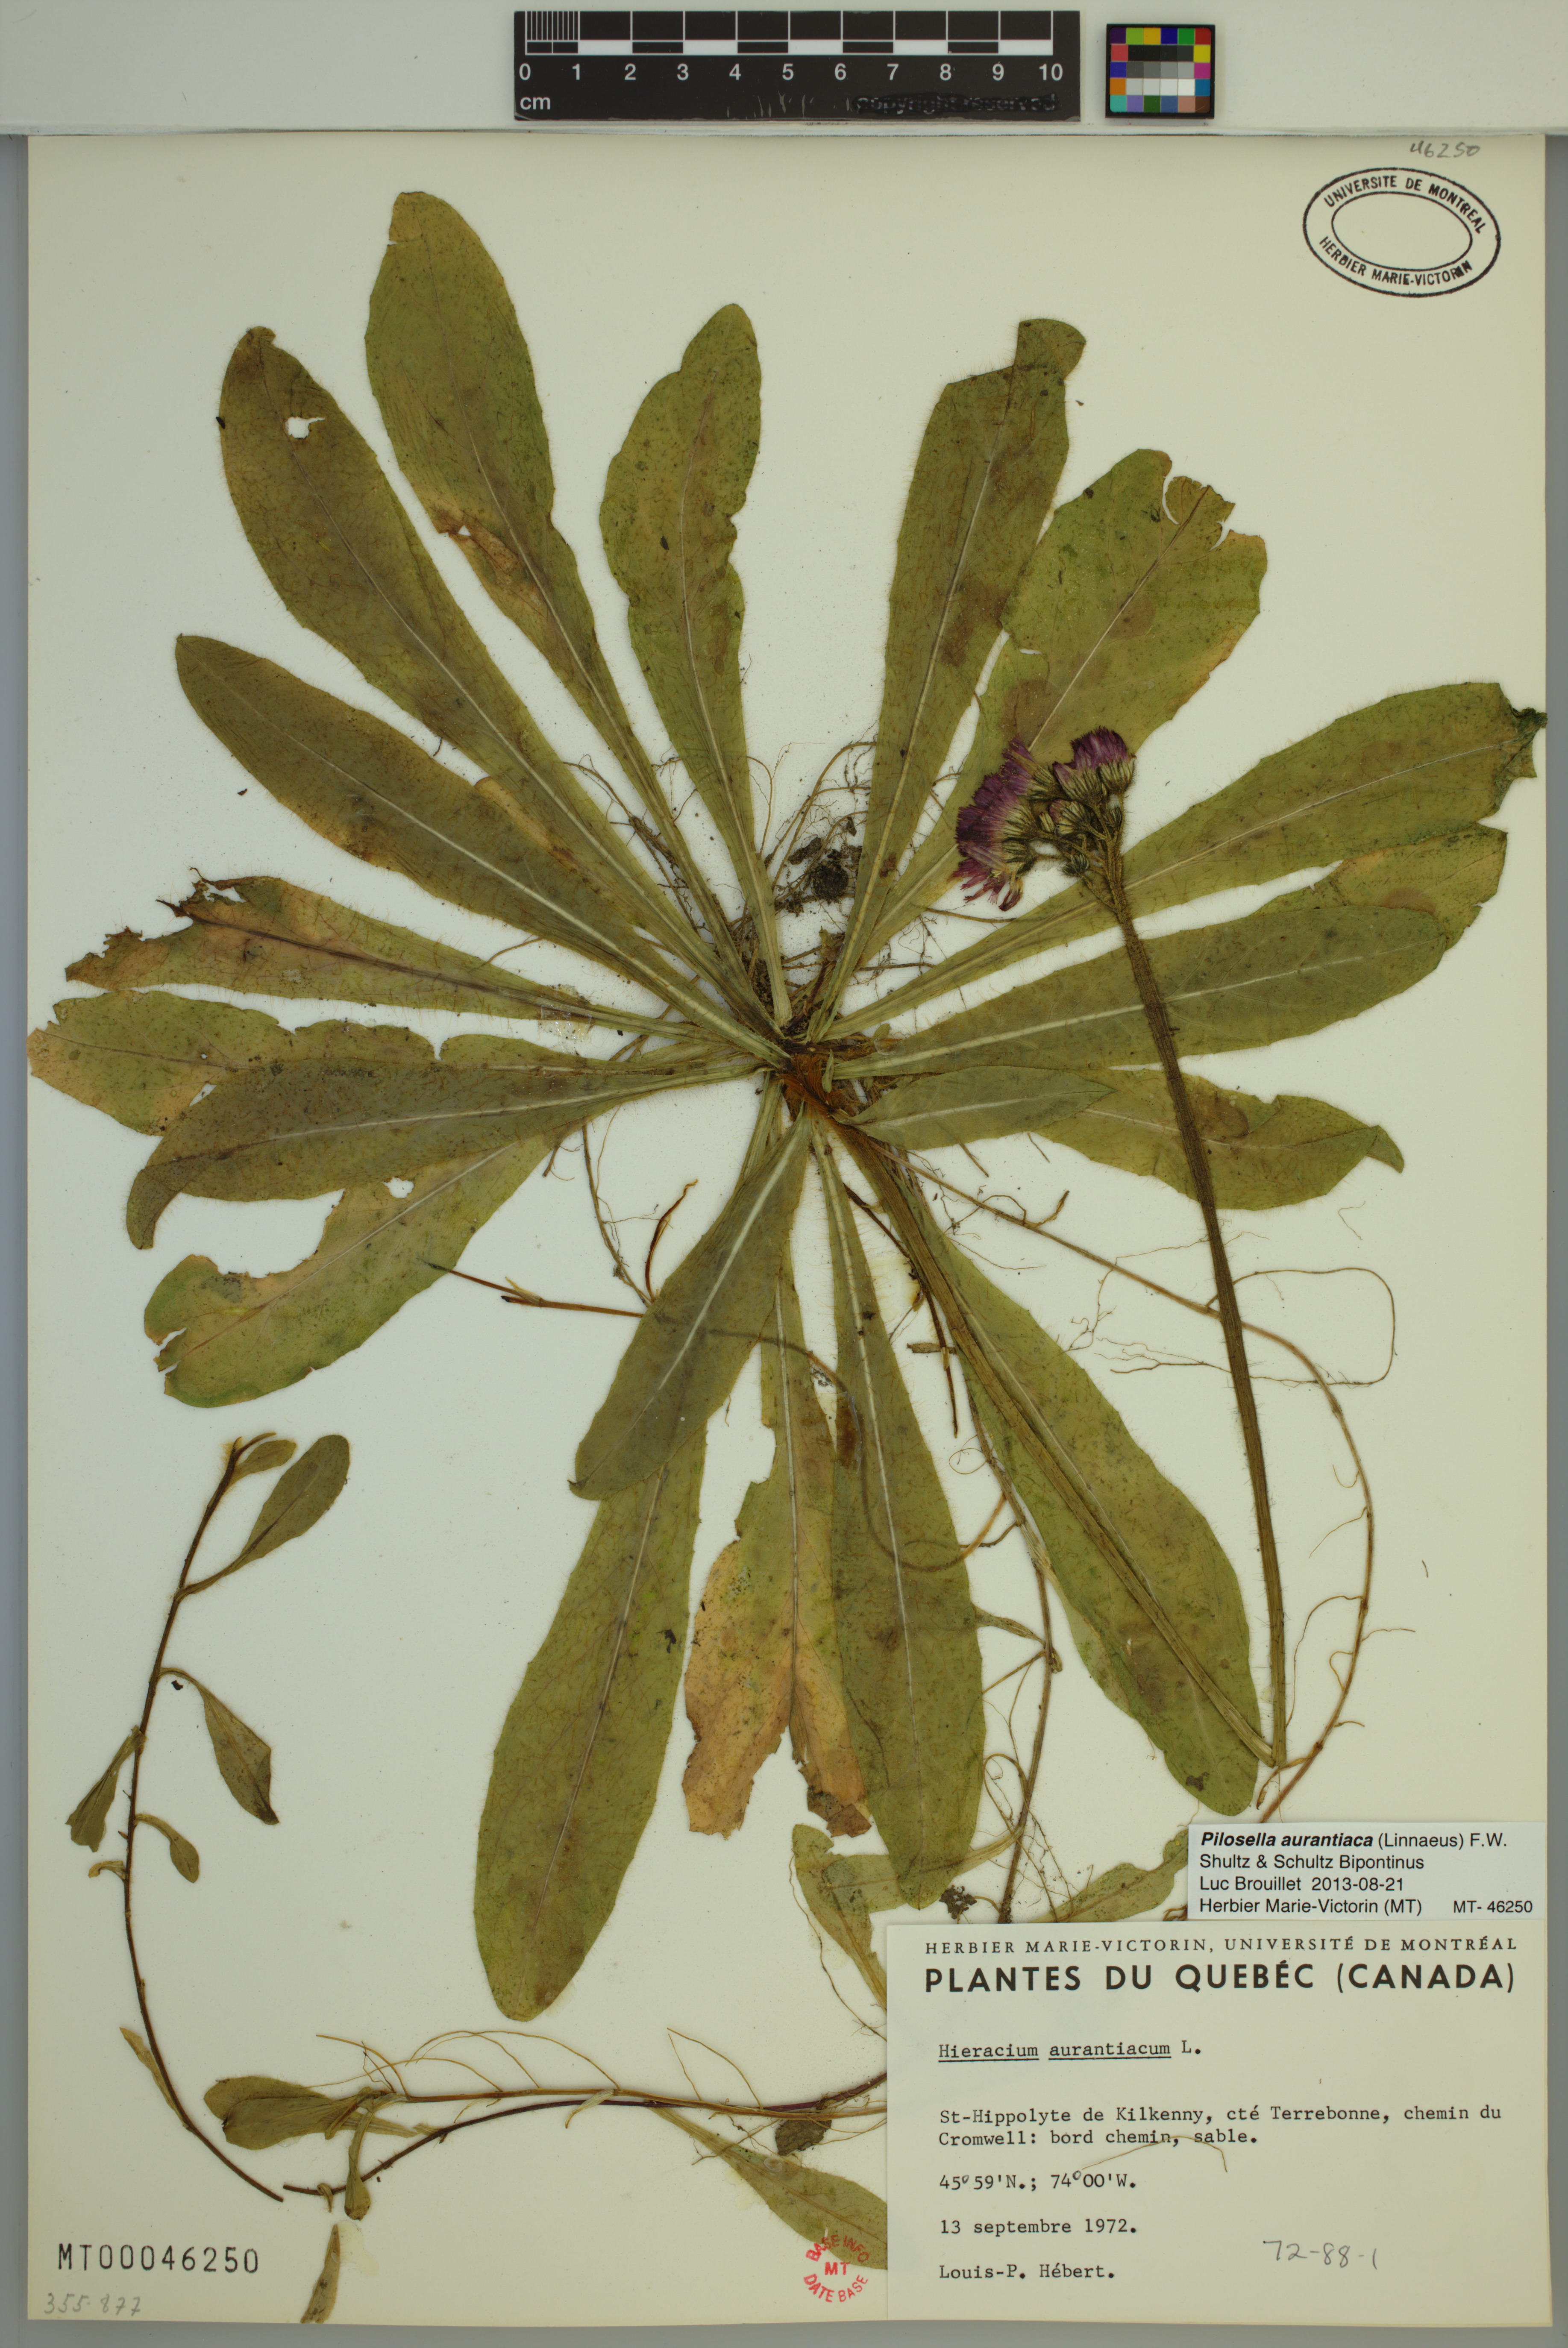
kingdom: Plantae
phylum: Tracheophyta
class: Magnoliopsida
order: Asterales
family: Asteraceae
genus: Pilosella
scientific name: Pilosella aurantiaca
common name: Fox-and-cubs
